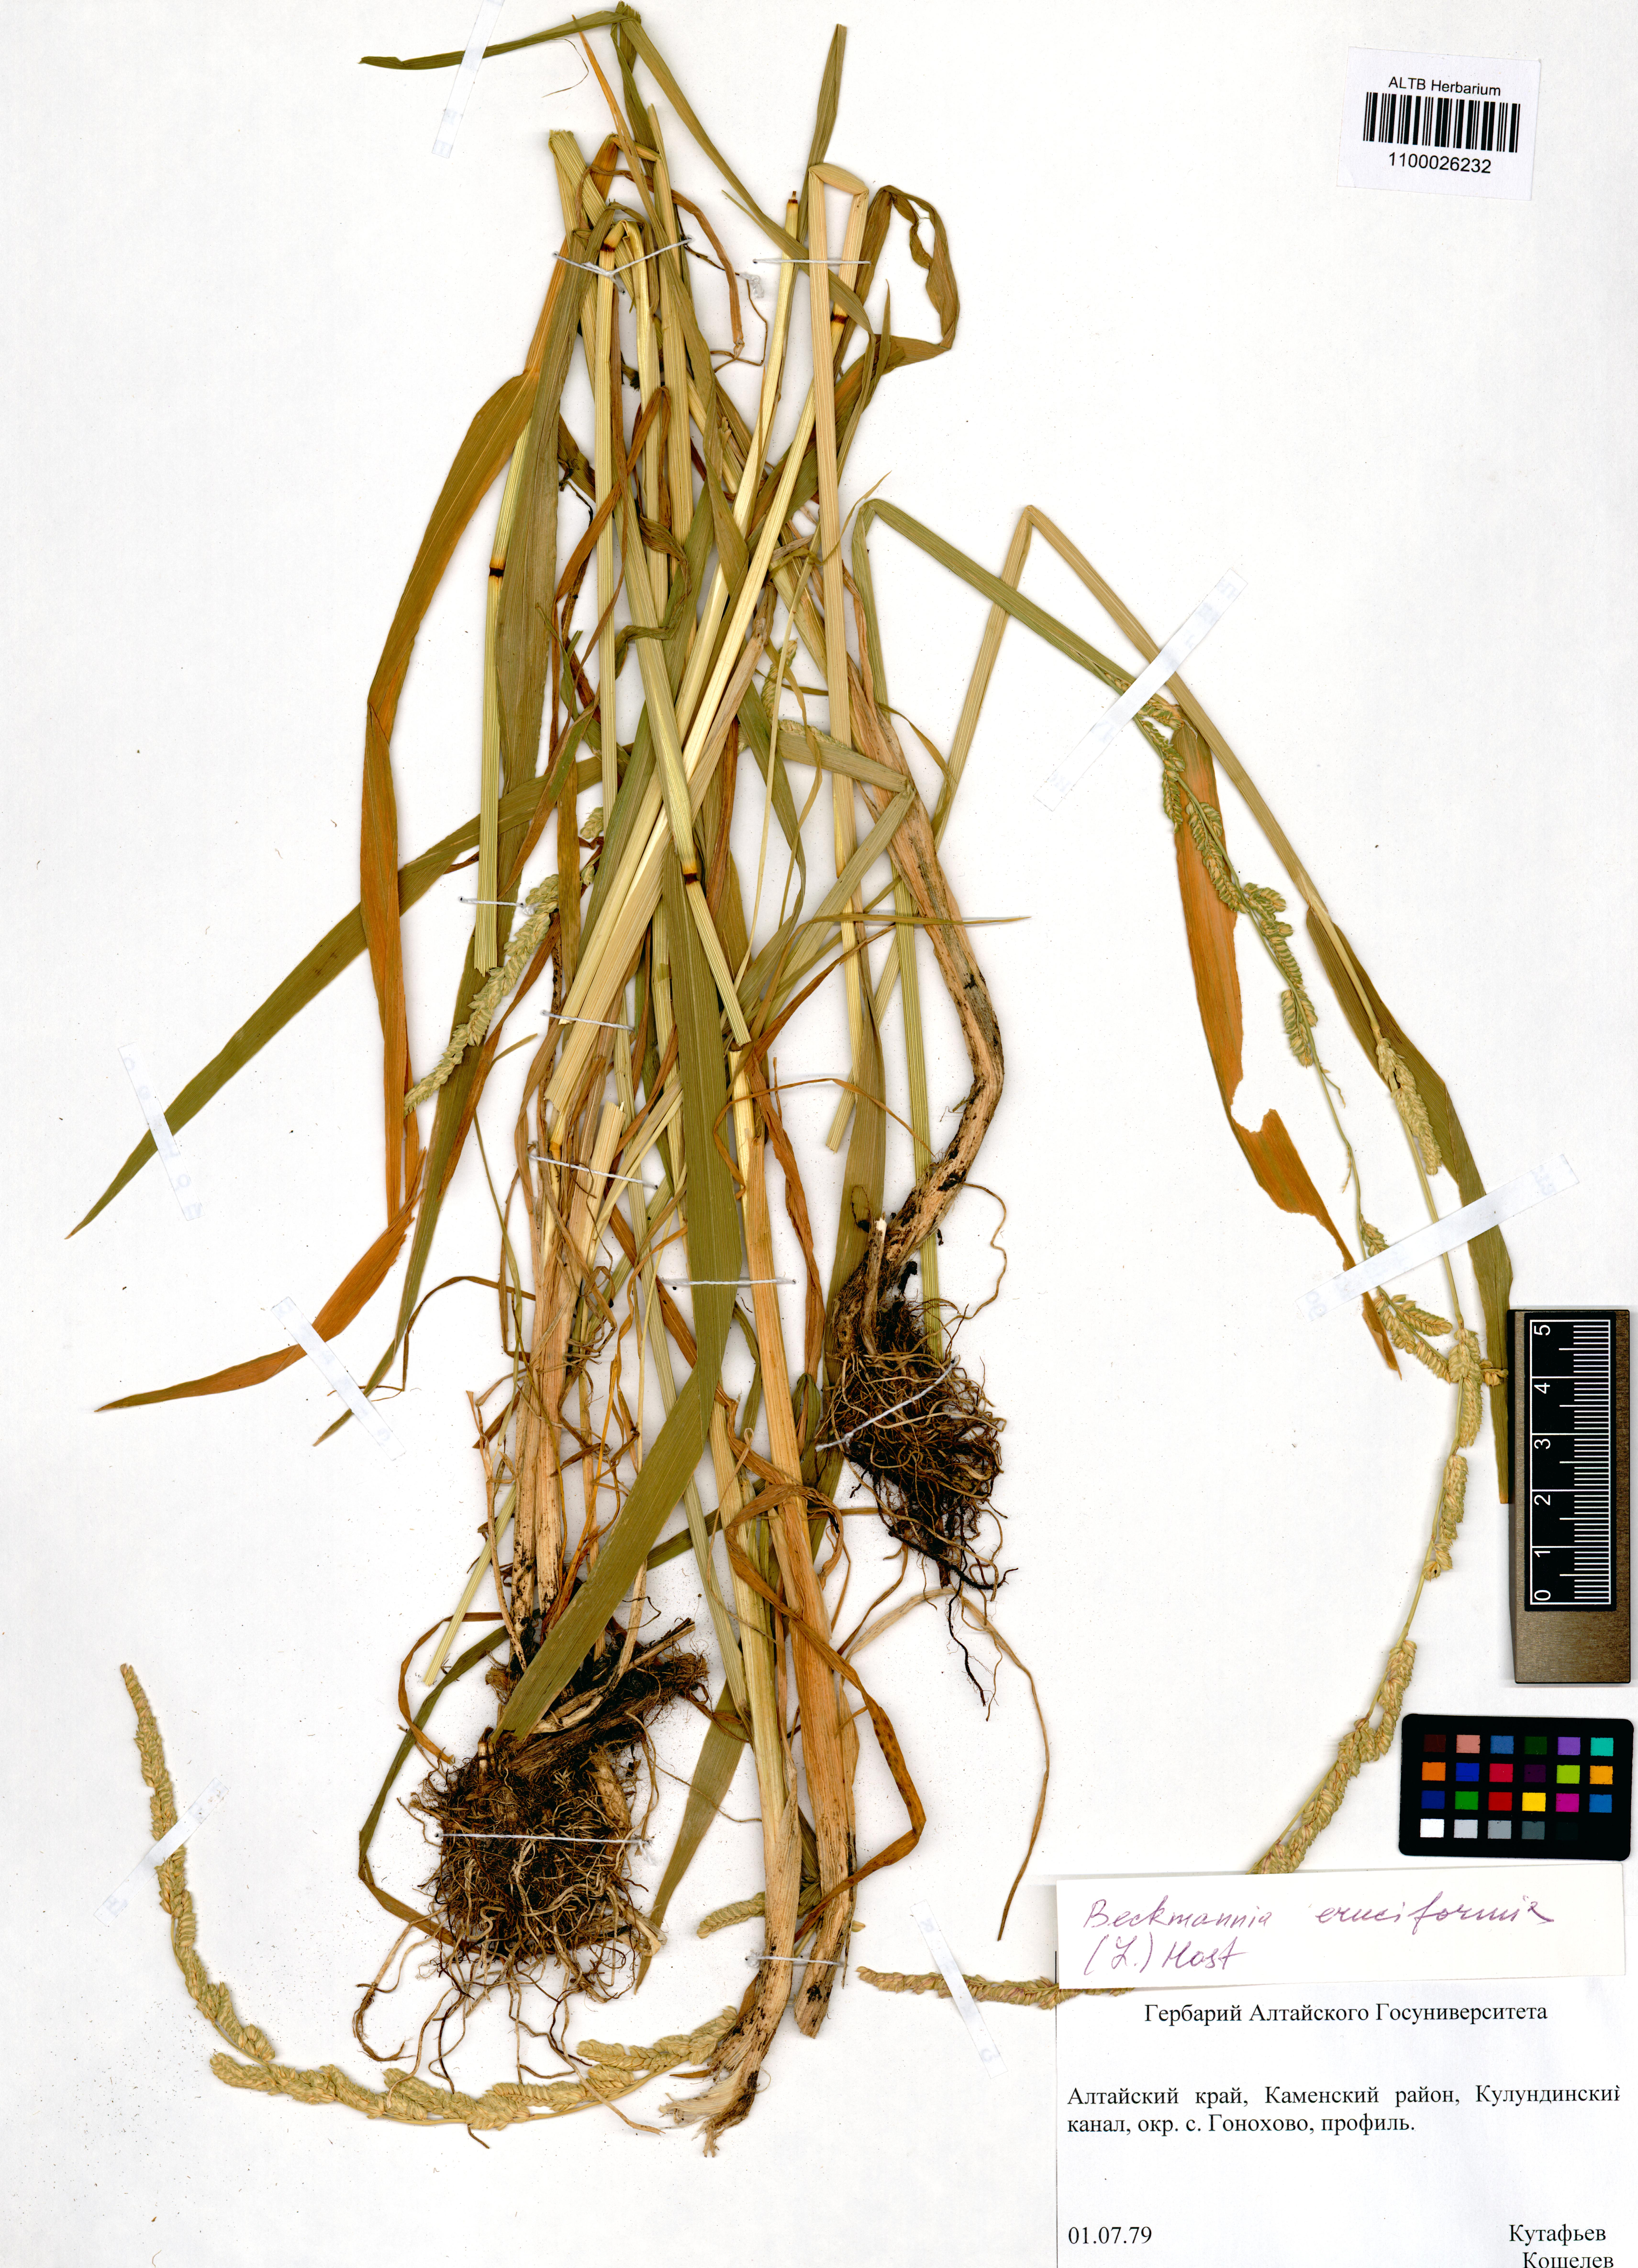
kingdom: Plantae
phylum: Tracheophyta
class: Liliopsida
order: Poales
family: Poaceae
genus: Beckmannia
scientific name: Beckmannia eruciformis
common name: European slough-grass
